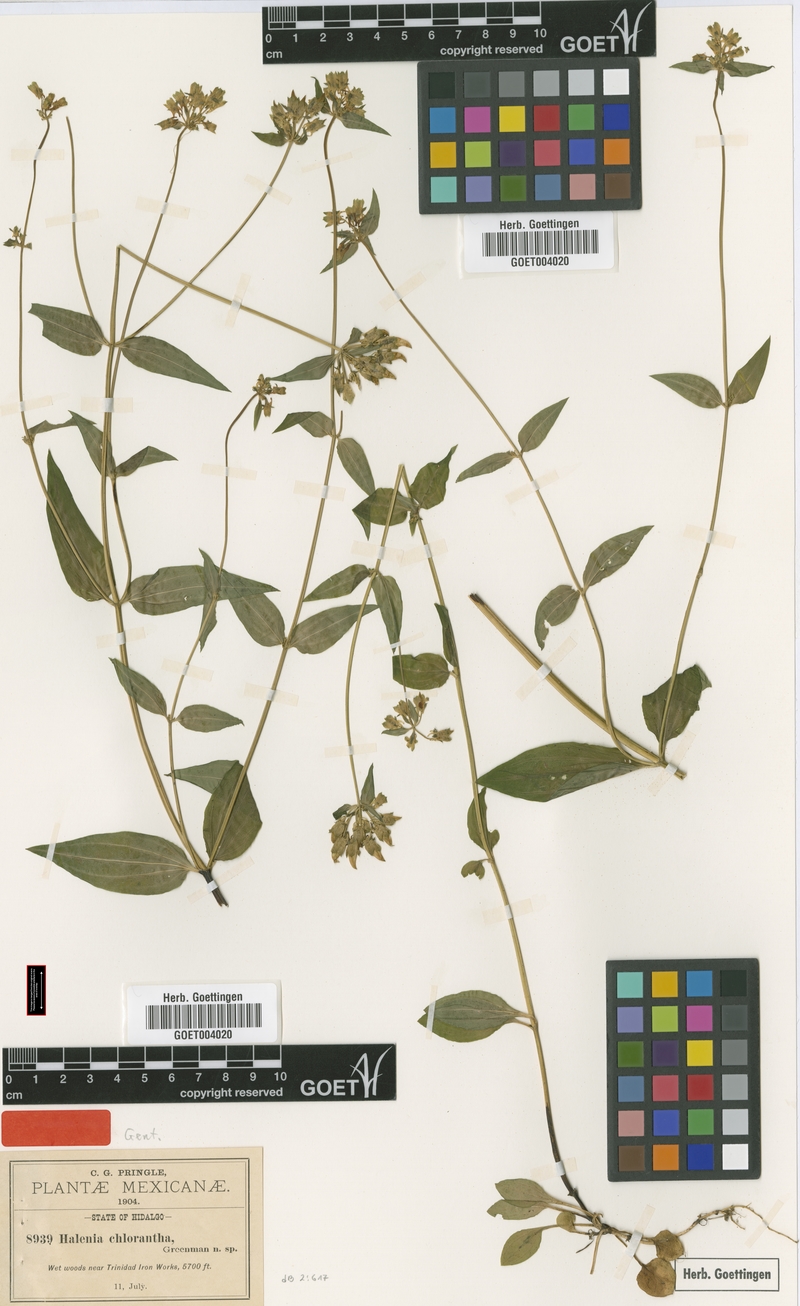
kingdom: Plantae
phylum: Tracheophyta
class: Magnoliopsida
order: Gentianales
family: Gentianaceae
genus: Halenia
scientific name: Halenia schiedeana
